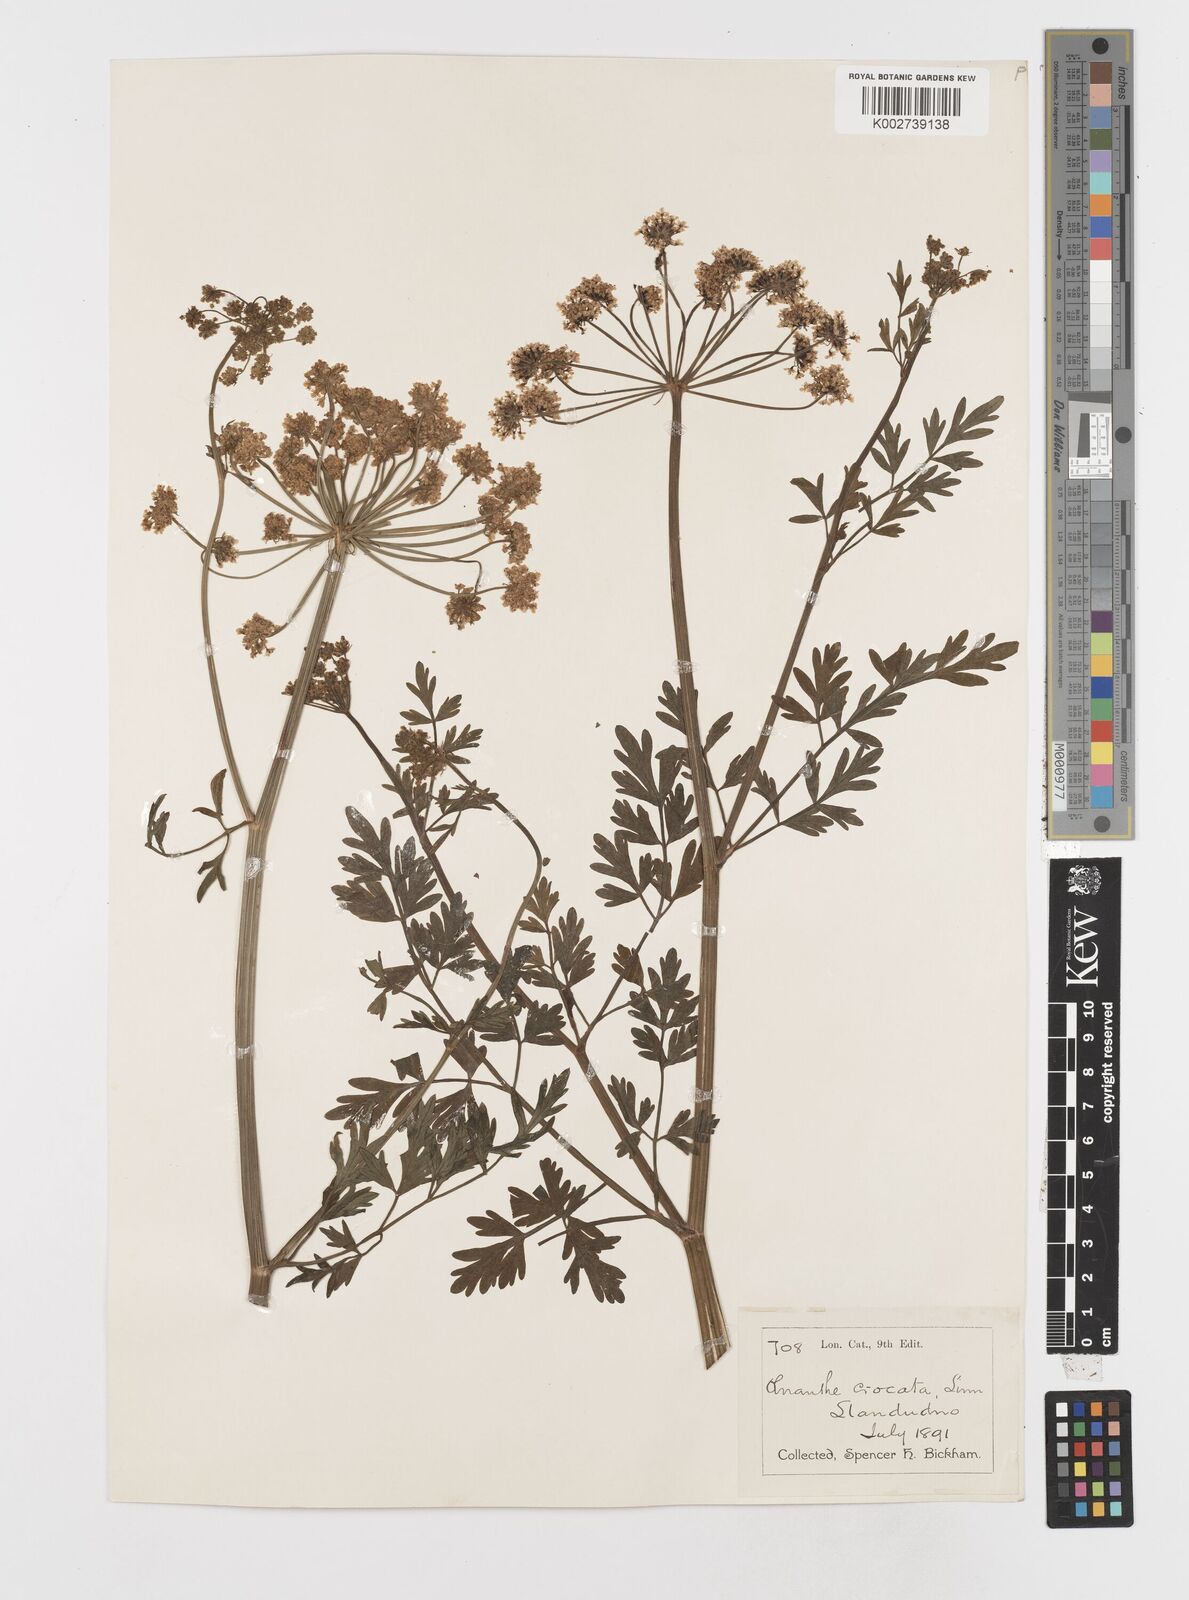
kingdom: Plantae
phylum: Tracheophyta
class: Magnoliopsida
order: Apiales
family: Apiaceae
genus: Oenanthe
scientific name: Oenanthe crocata
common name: Hemlock water-dropwort
